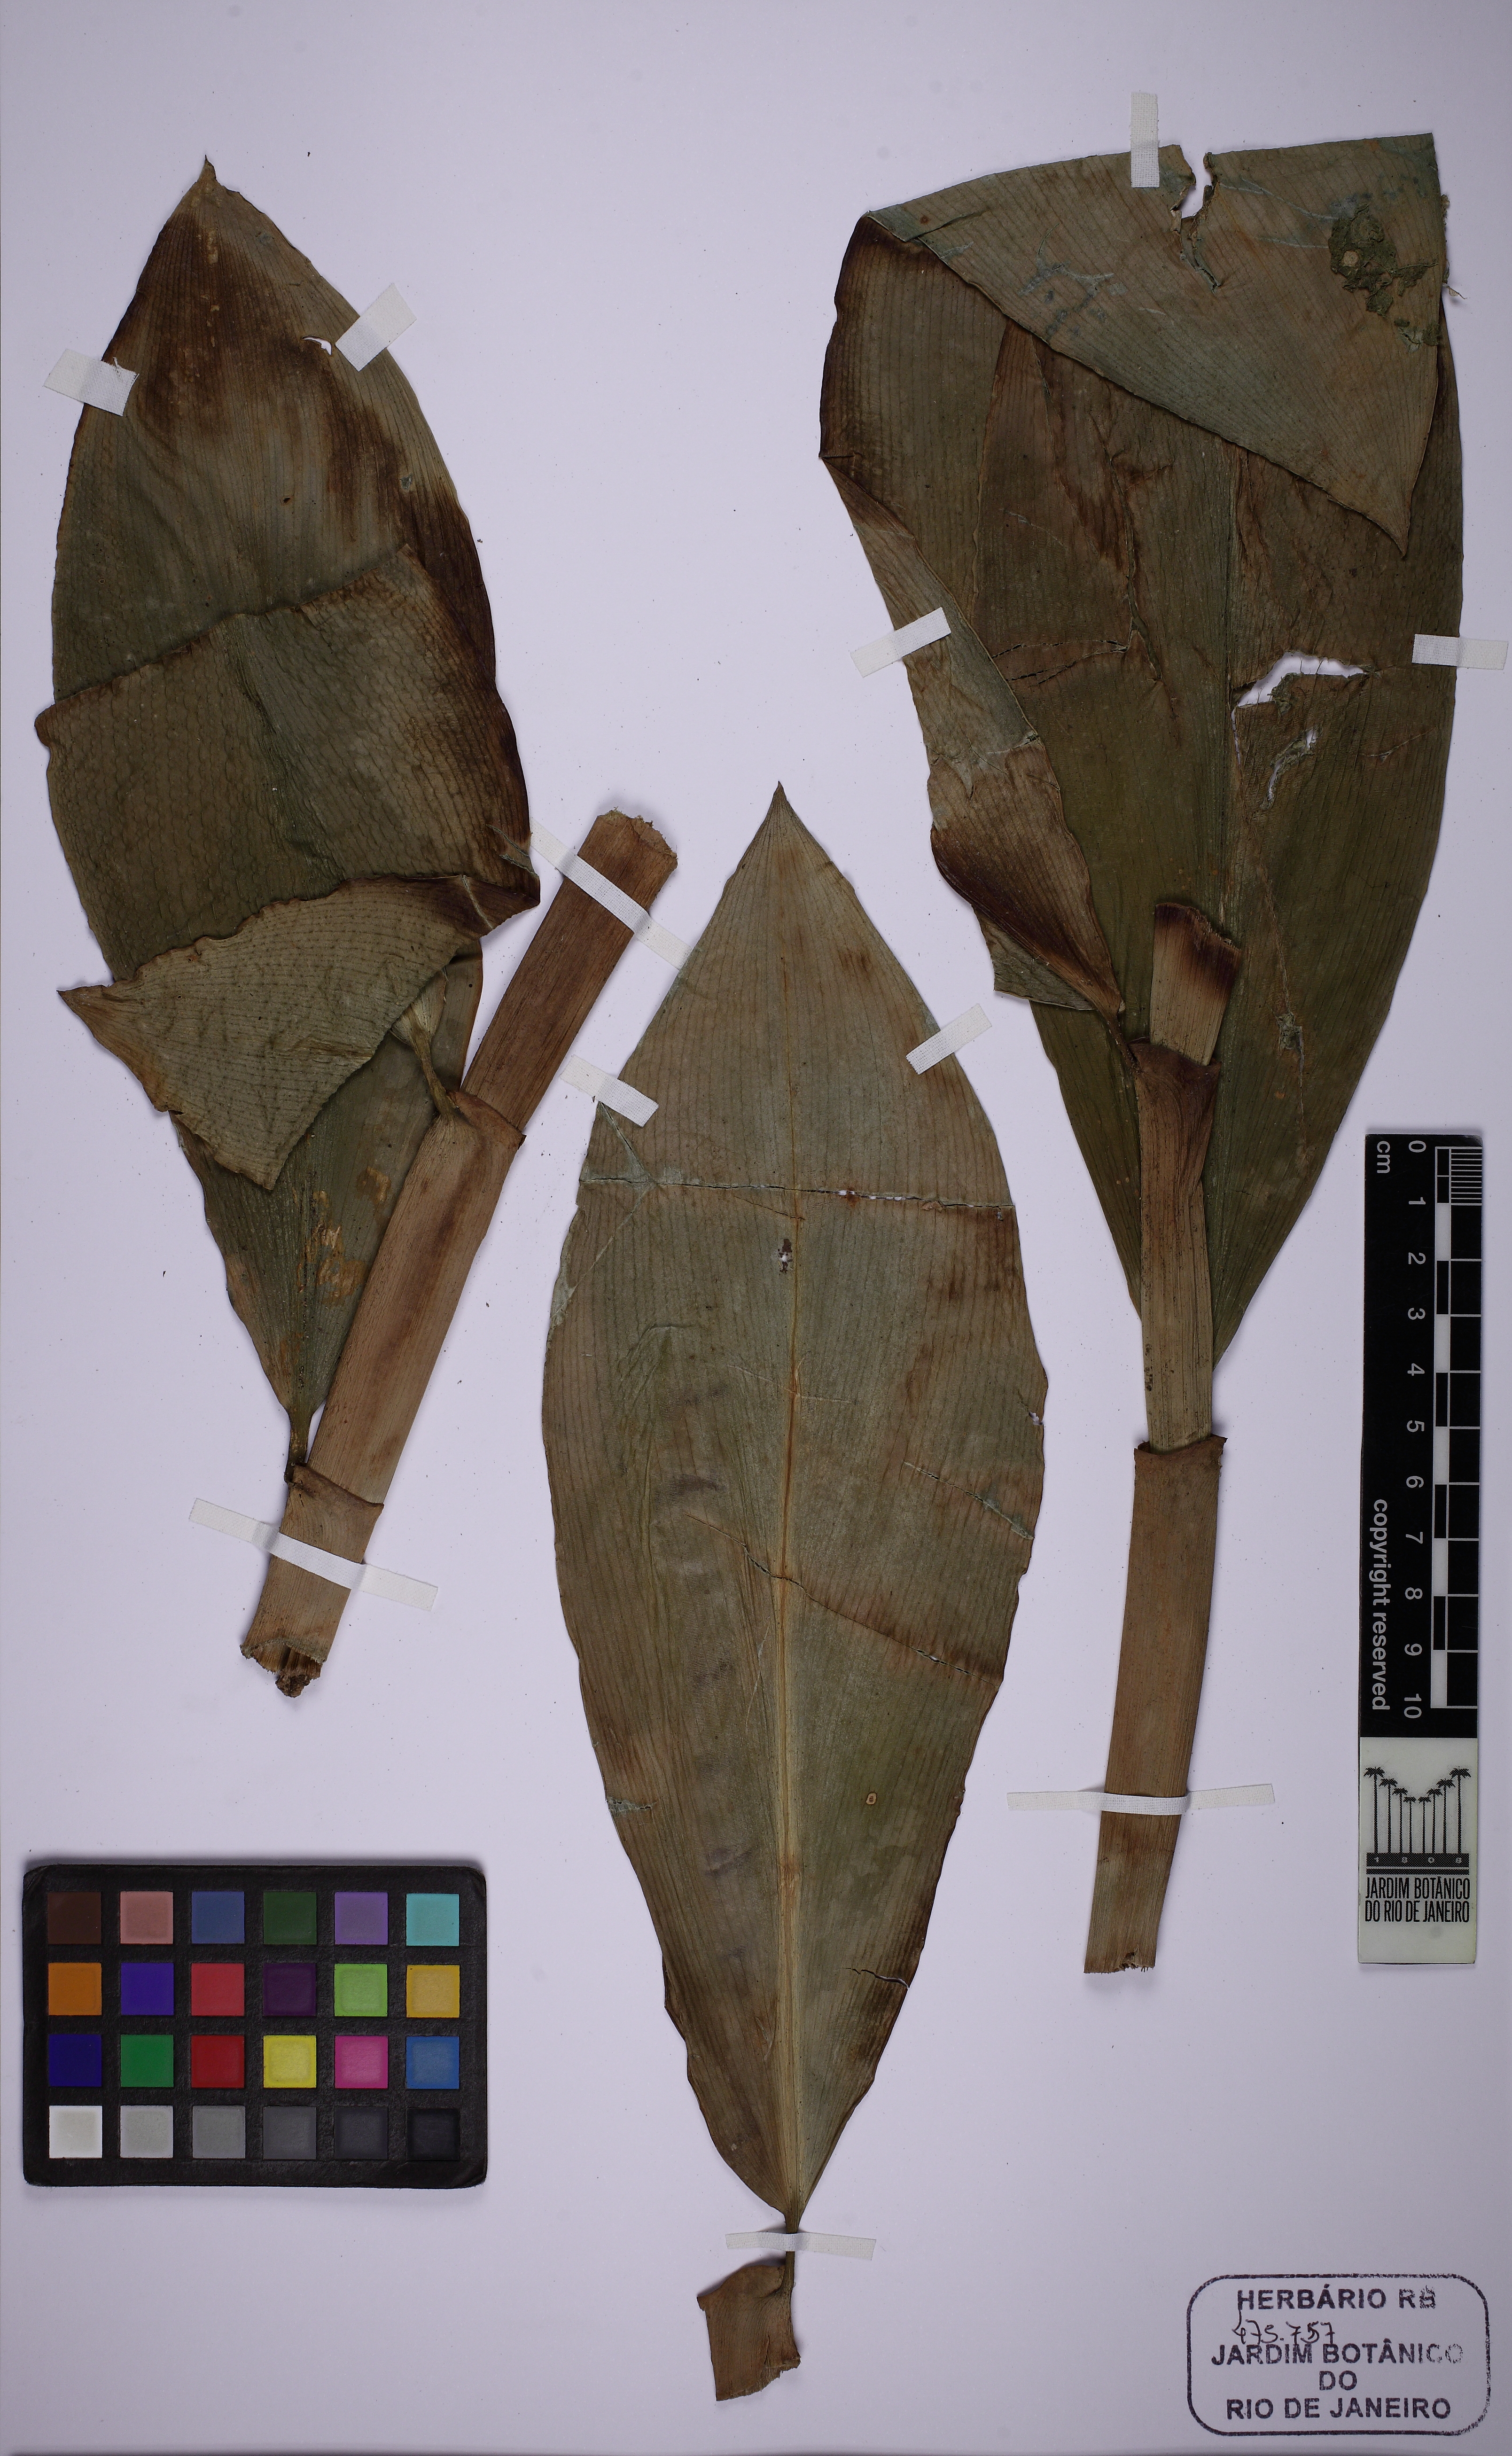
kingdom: Plantae
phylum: Tracheophyta
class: Liliopsida
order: Zingiberales
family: Costaceae
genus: Costus
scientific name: Costus spiralis
